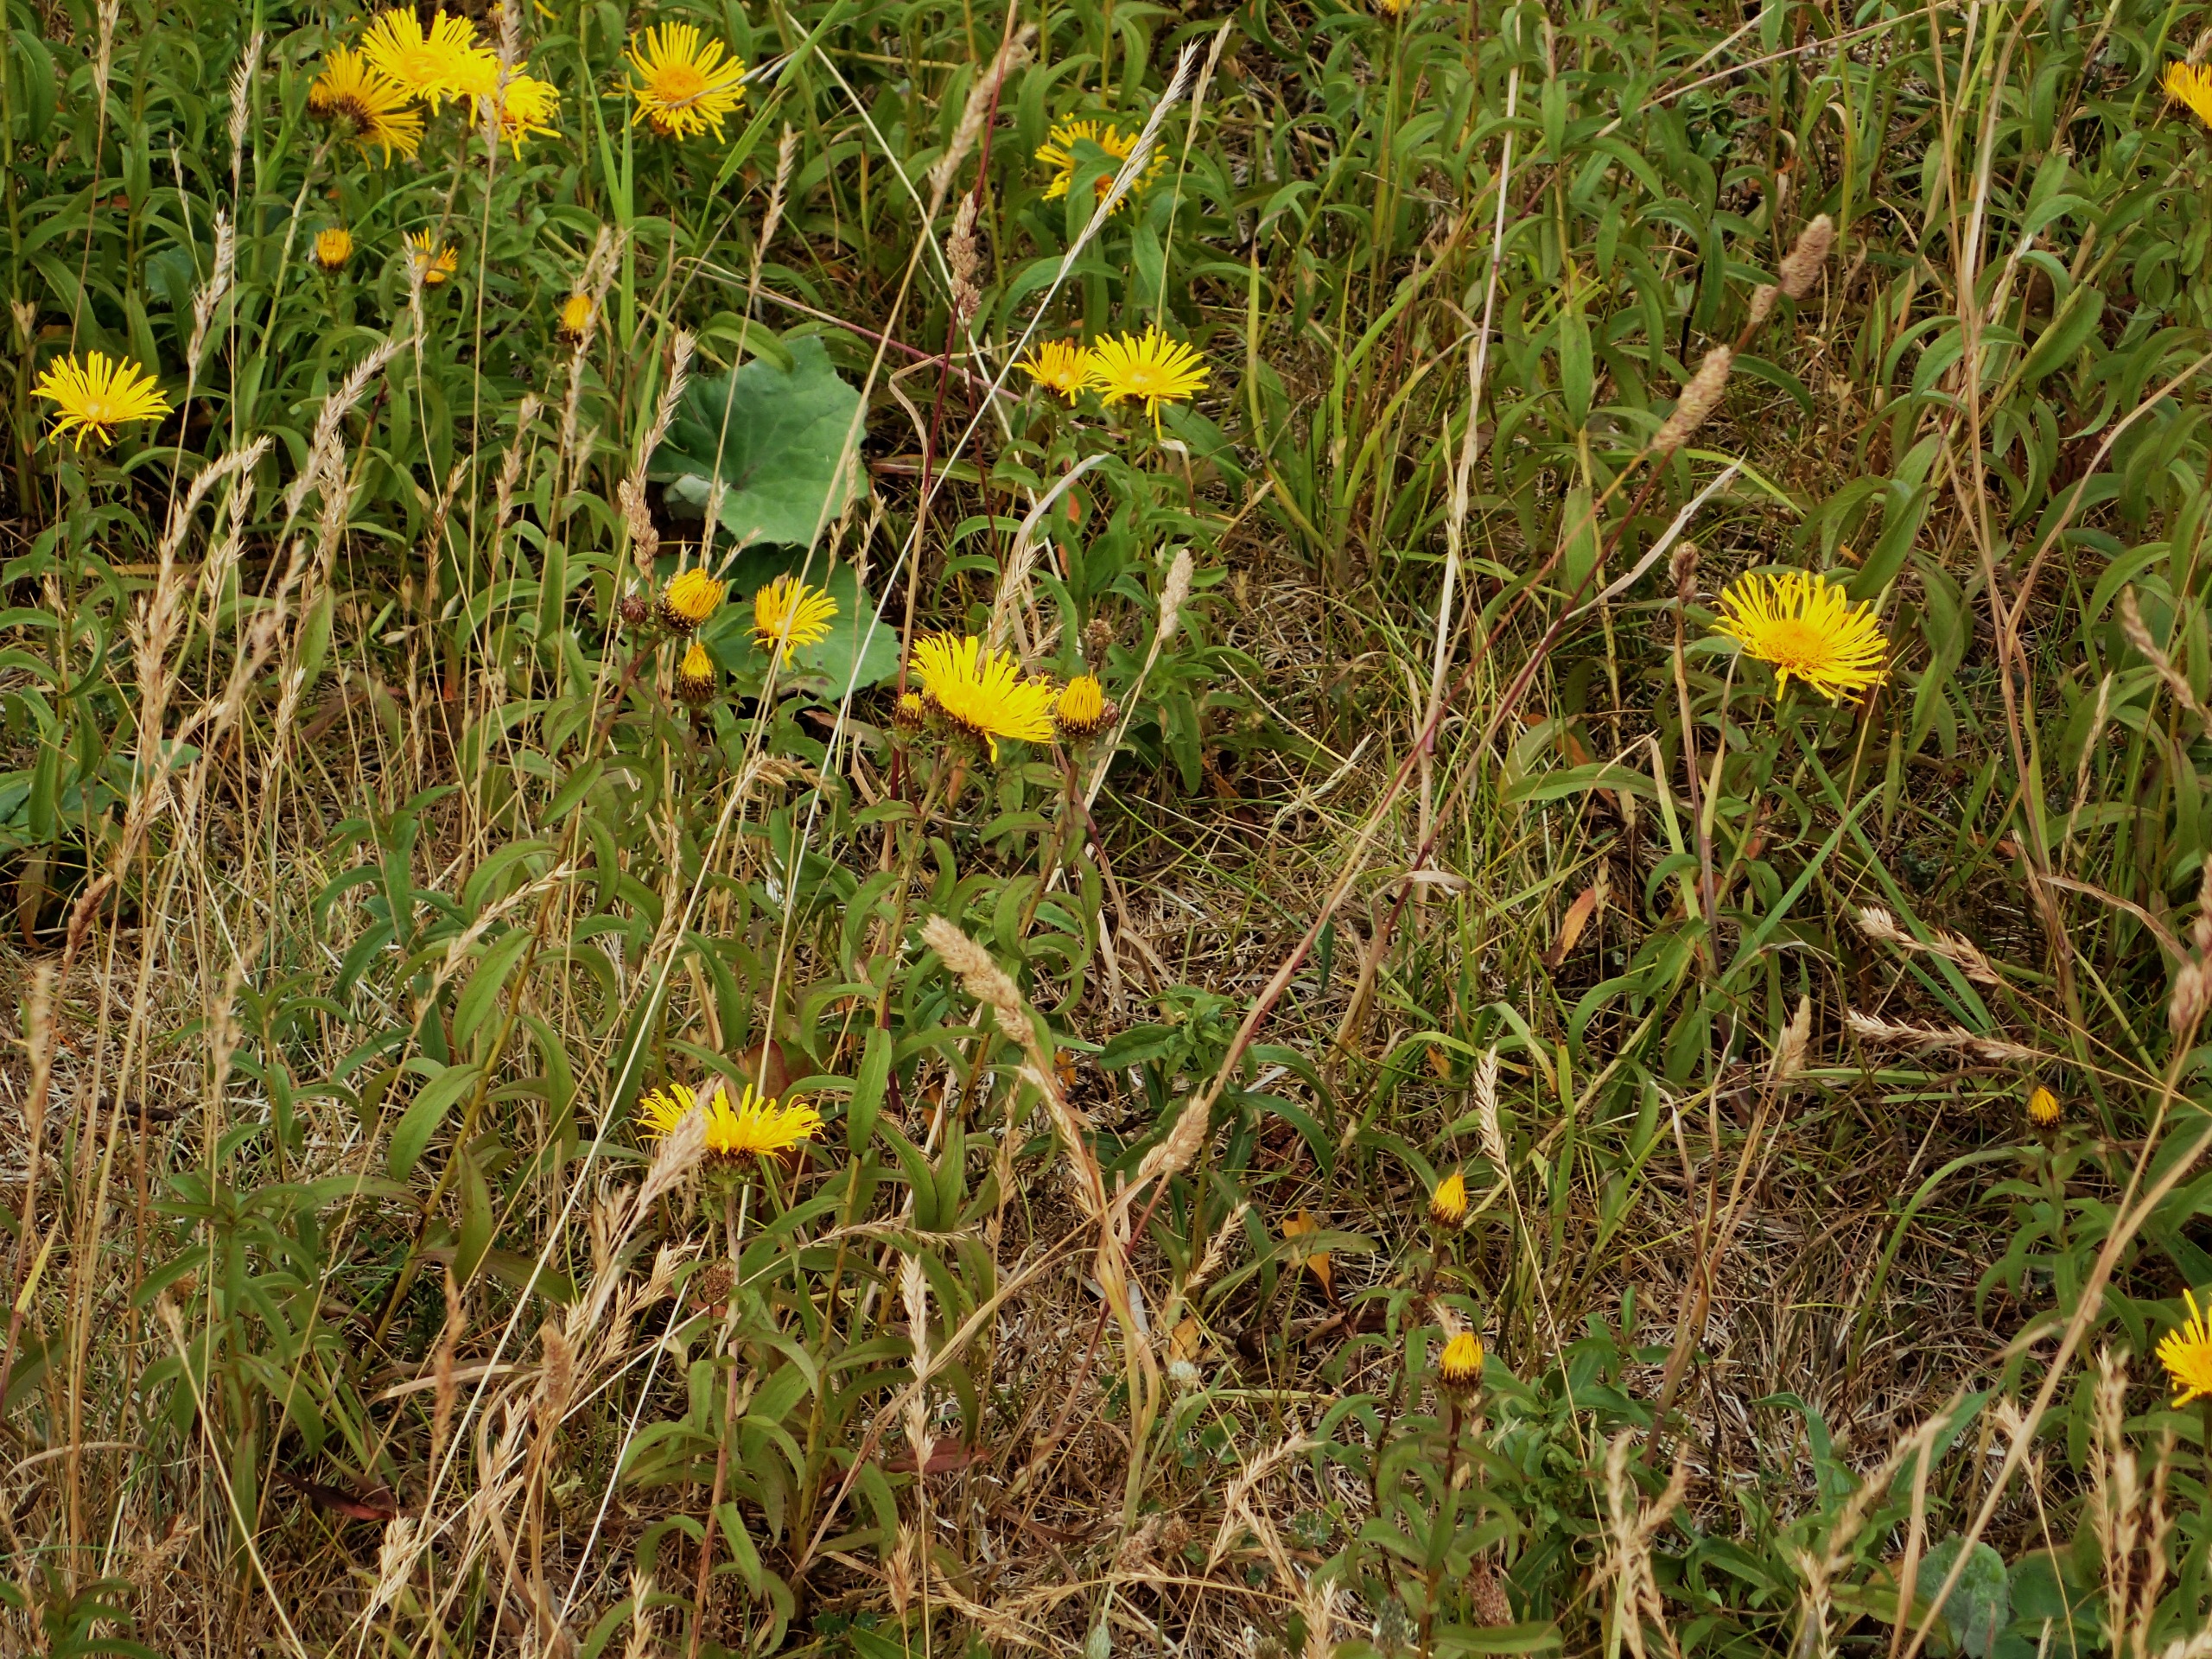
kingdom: Plantae
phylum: Tracheophyta
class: Magnoliopsida
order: Asterales
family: Asteraceae
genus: Pentanema
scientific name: Pentanema salicinum
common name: Pile-alant
